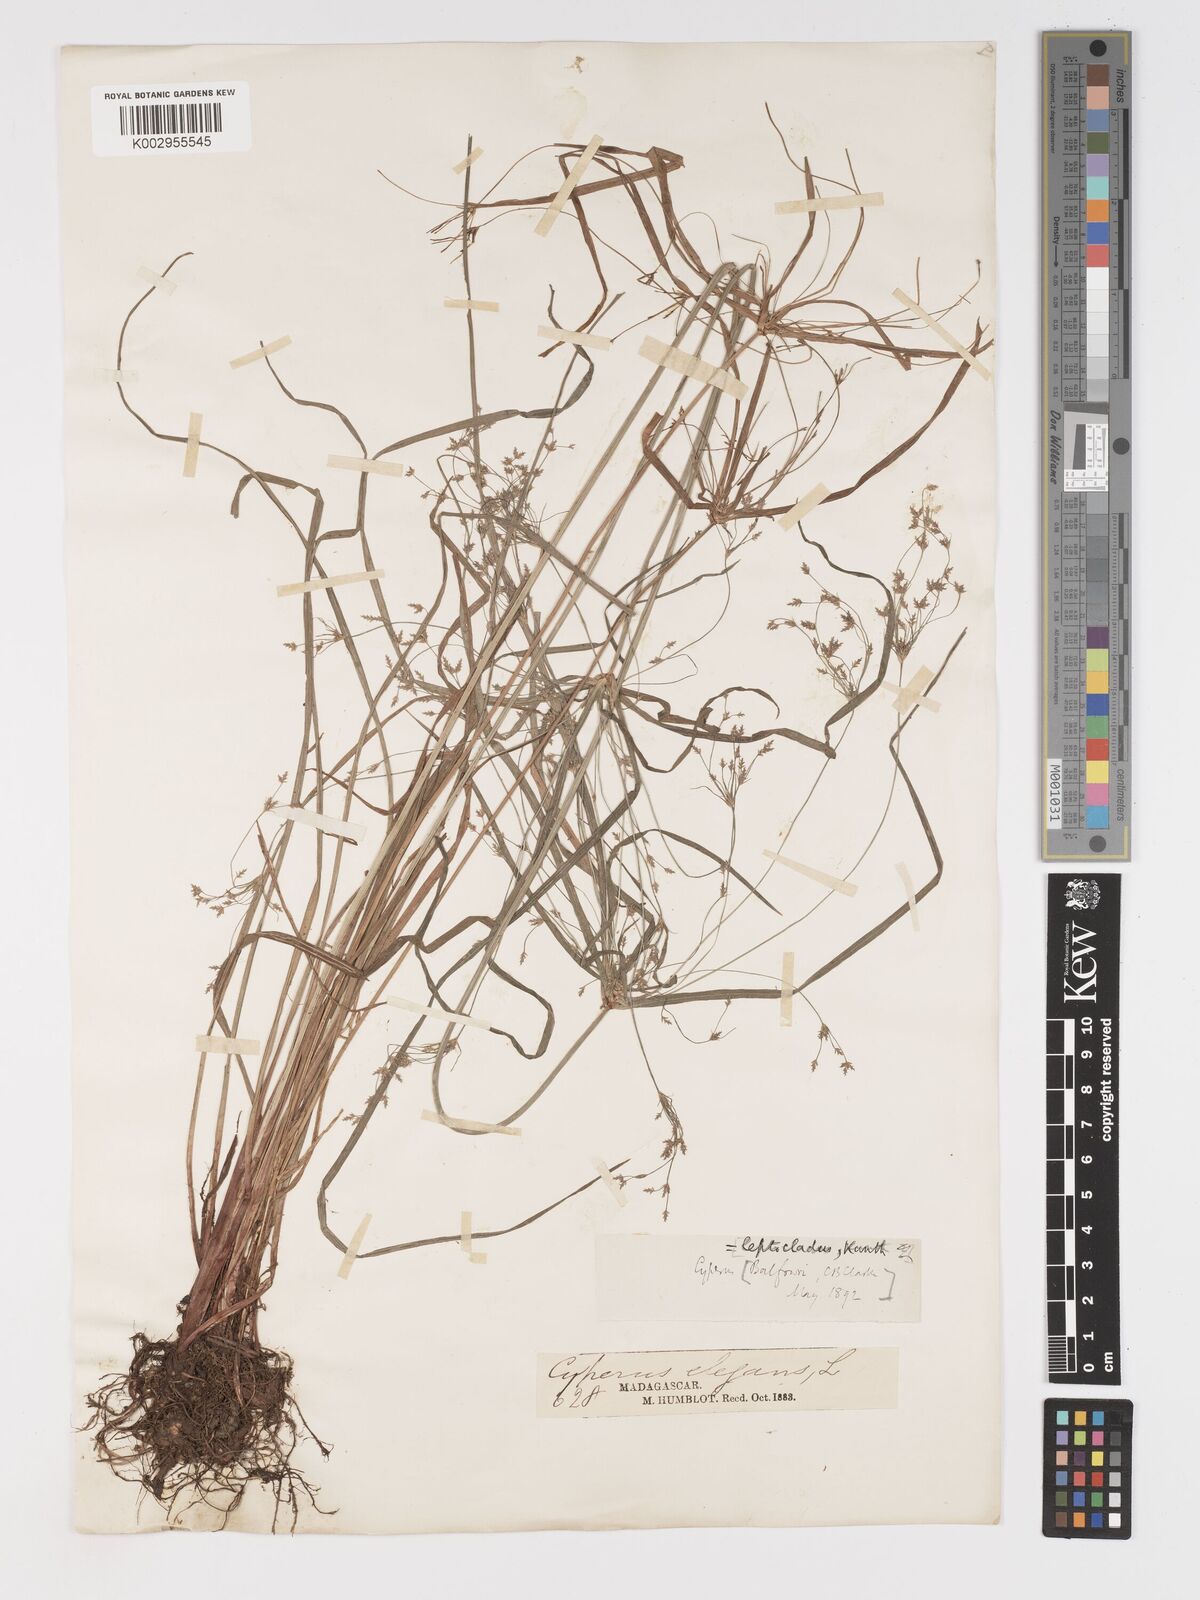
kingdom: Plantae
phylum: Tracheophyta
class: Liliopsida
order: Poales
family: Cyperaceae
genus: Cyperus
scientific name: Cyperus longifolius
